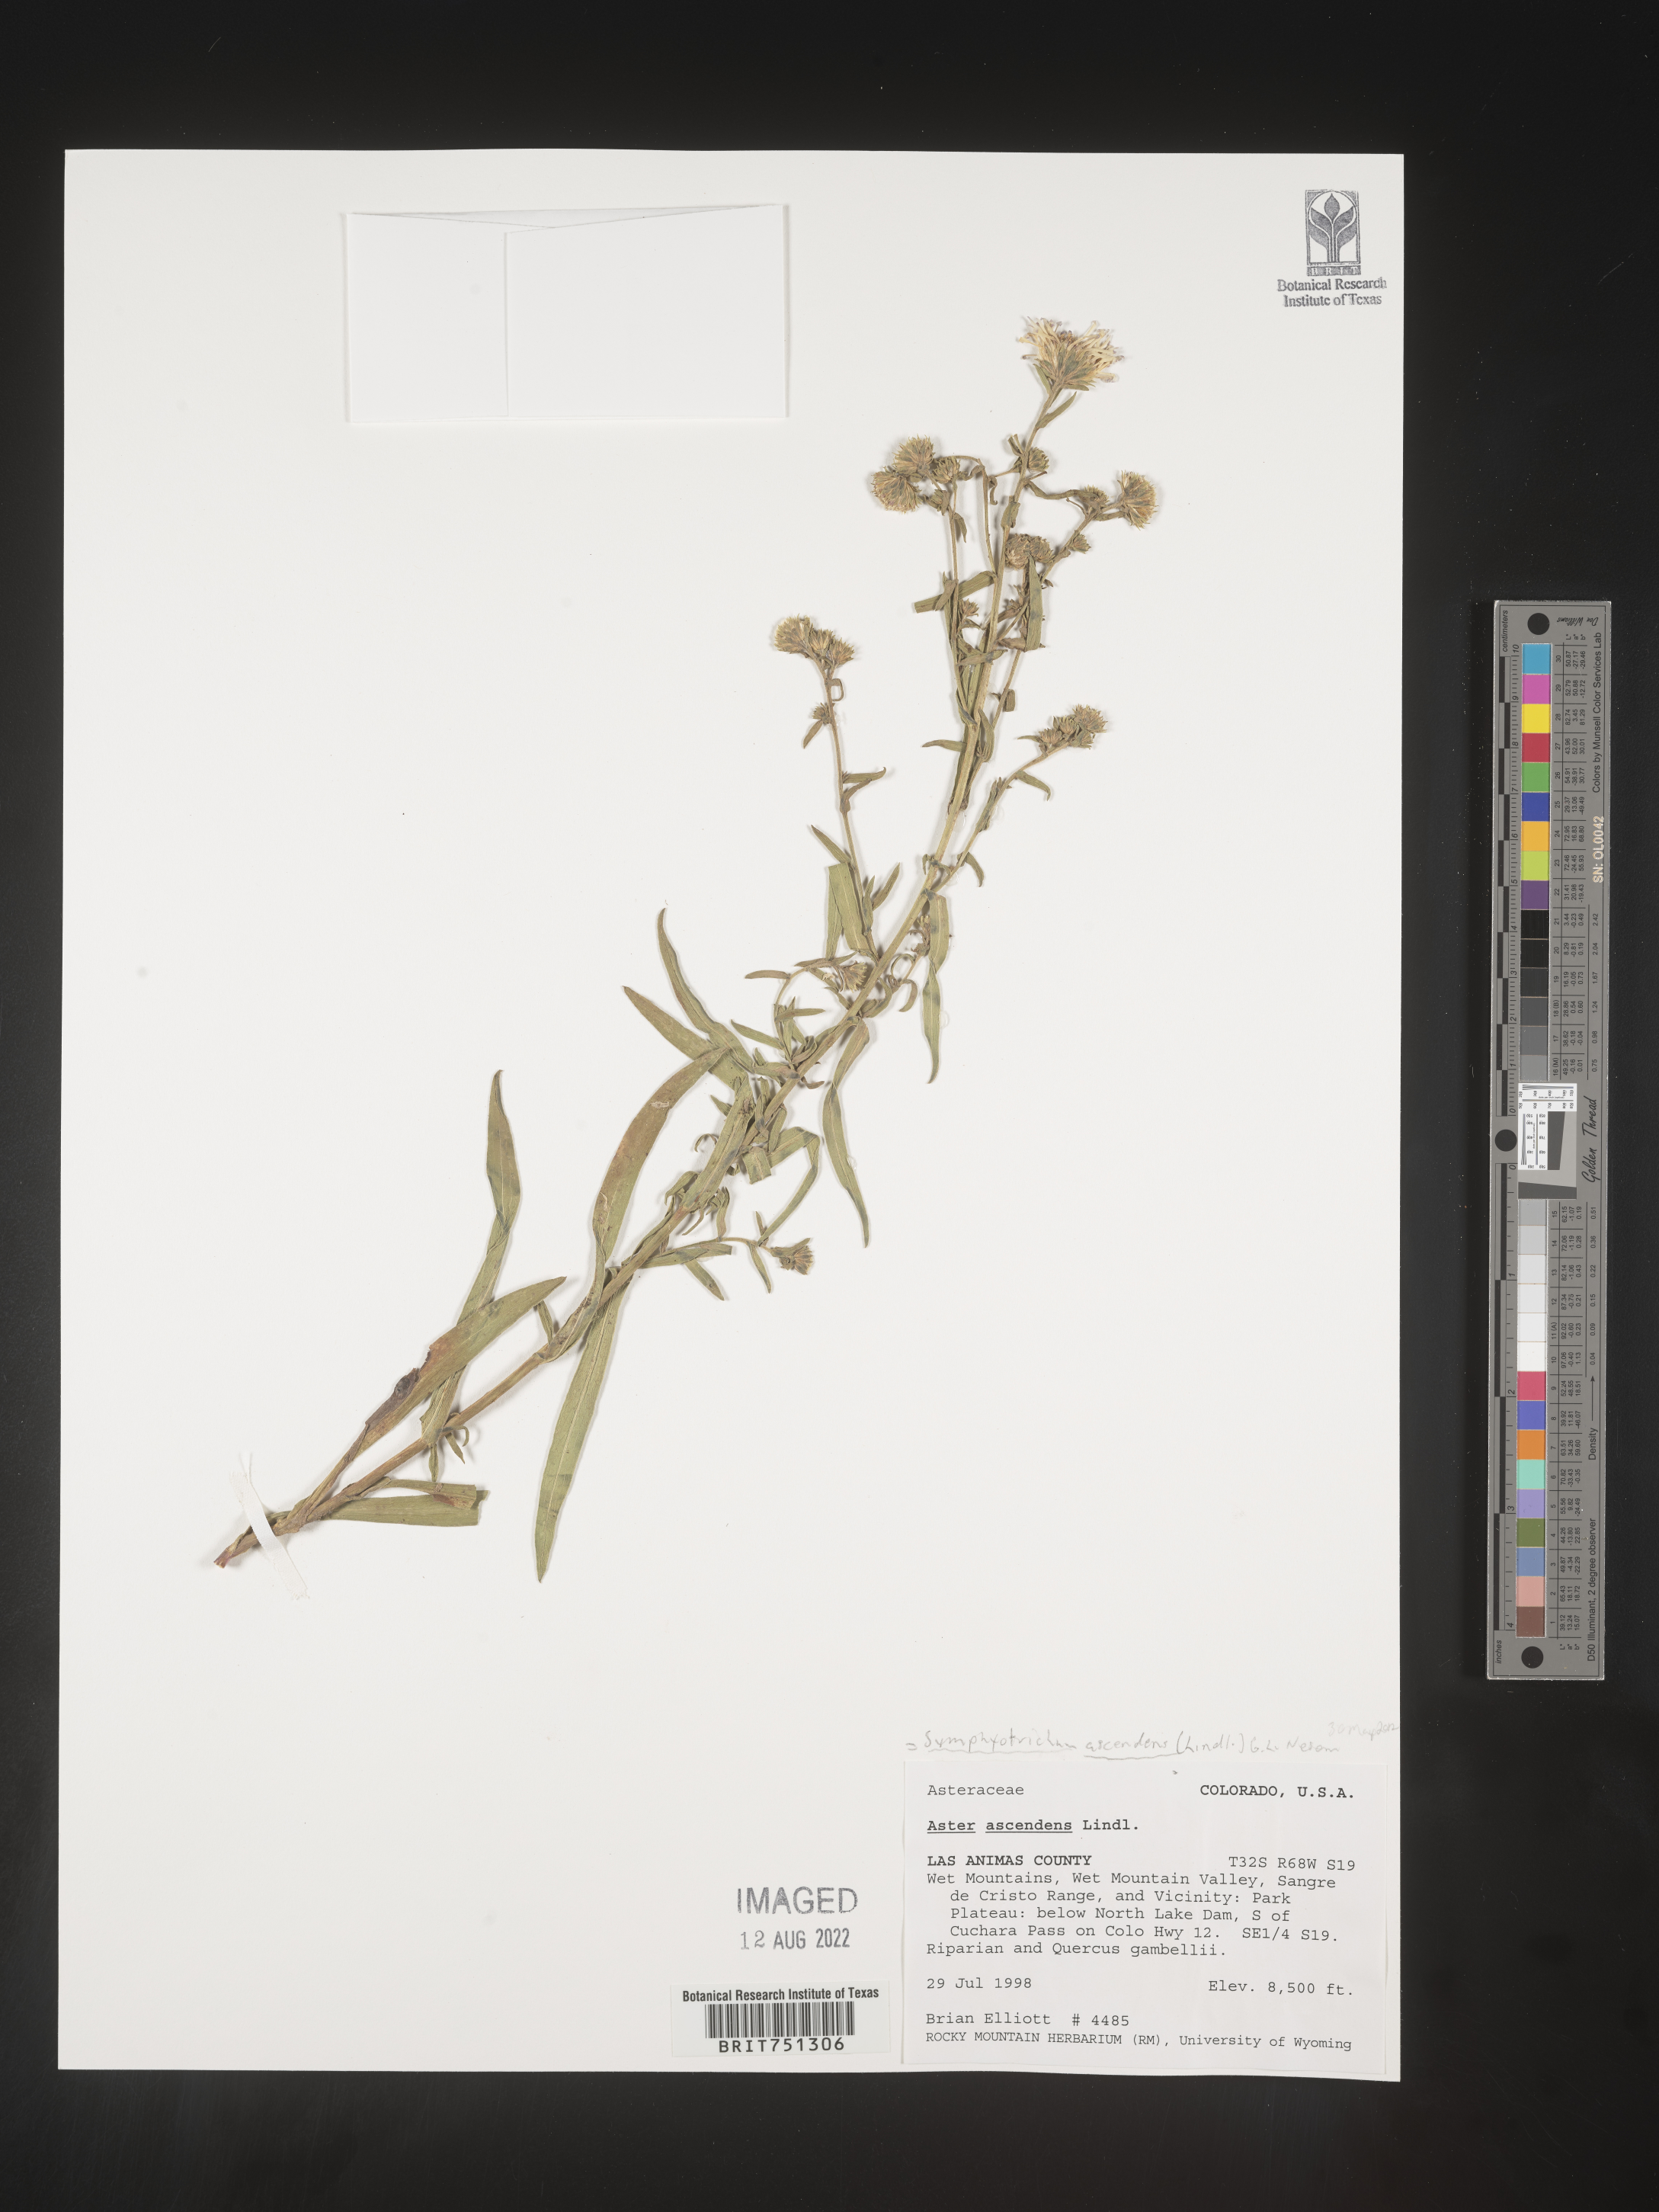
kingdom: Plantae
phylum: Tracheophyta
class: Magnoliopsida
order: Asterales
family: Asteraceae
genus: Symphyotrichum
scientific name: Symphyotrichum ascendens
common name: Intermountain aster
